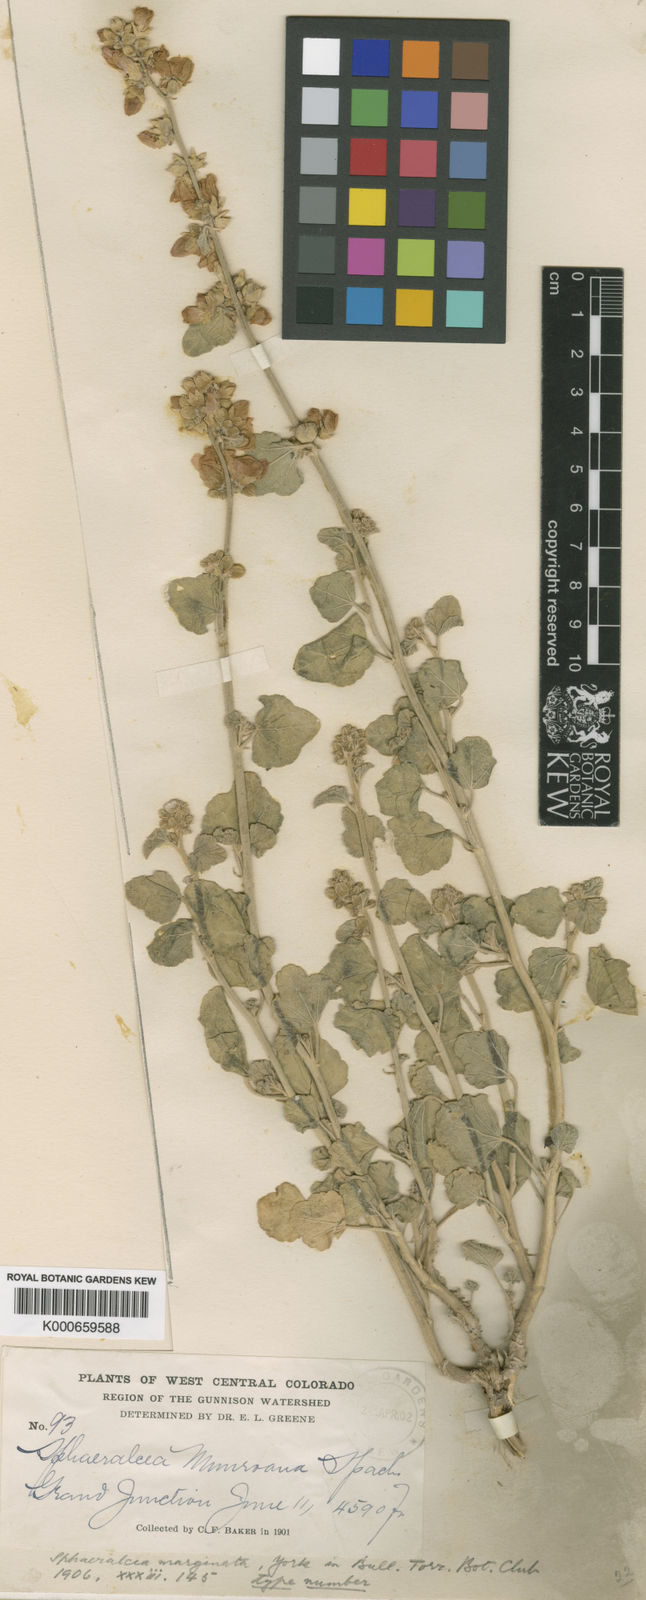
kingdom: Plantae
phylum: Tracheophyta
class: Magnoliopsida
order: Malvales
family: Malvaceae
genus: Sphaeralcea
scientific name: Sphaeralcea parvifolia
